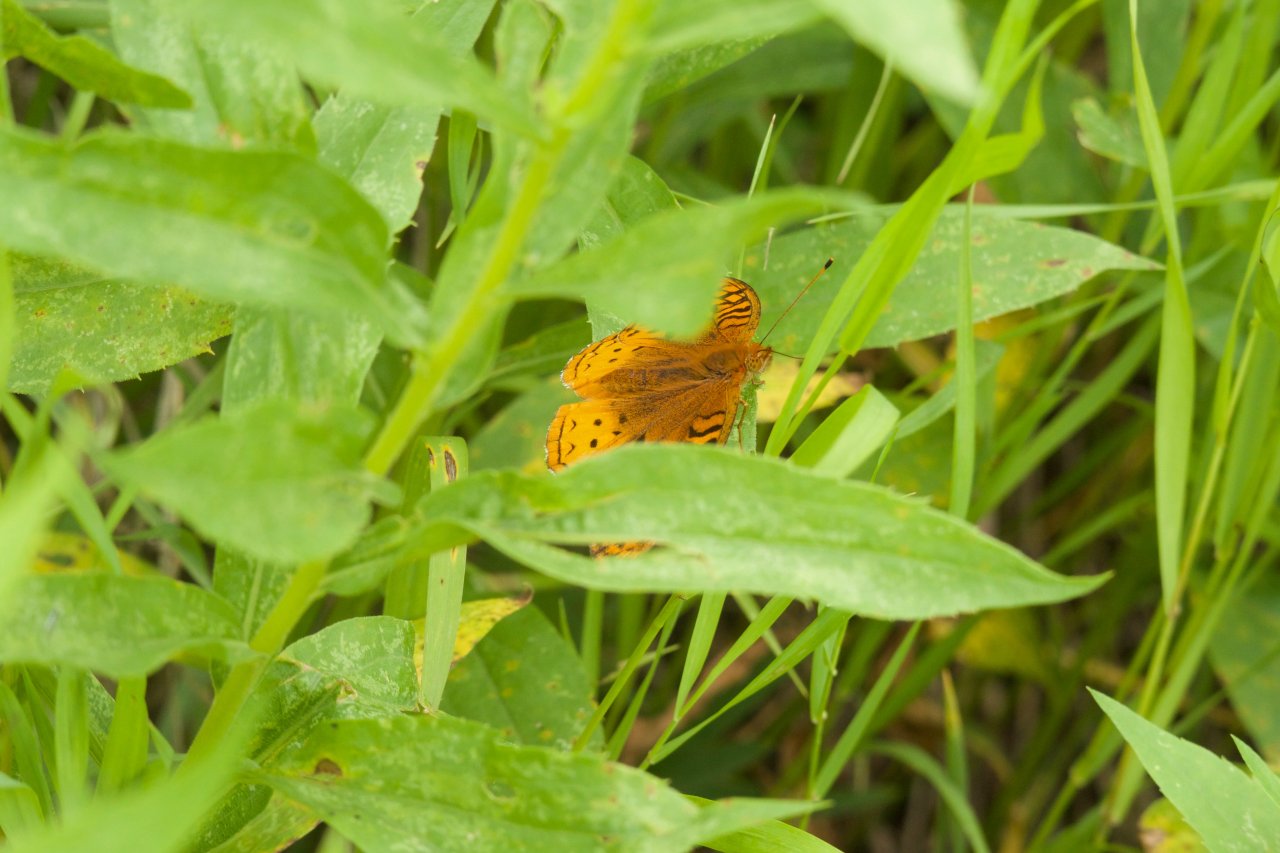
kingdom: Animalia
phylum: Arthropoda
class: Insecta
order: Lepidoptera
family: Nymphalidae
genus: Speyeria
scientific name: Speyeria cybele
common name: Great Spangled Fritillary
